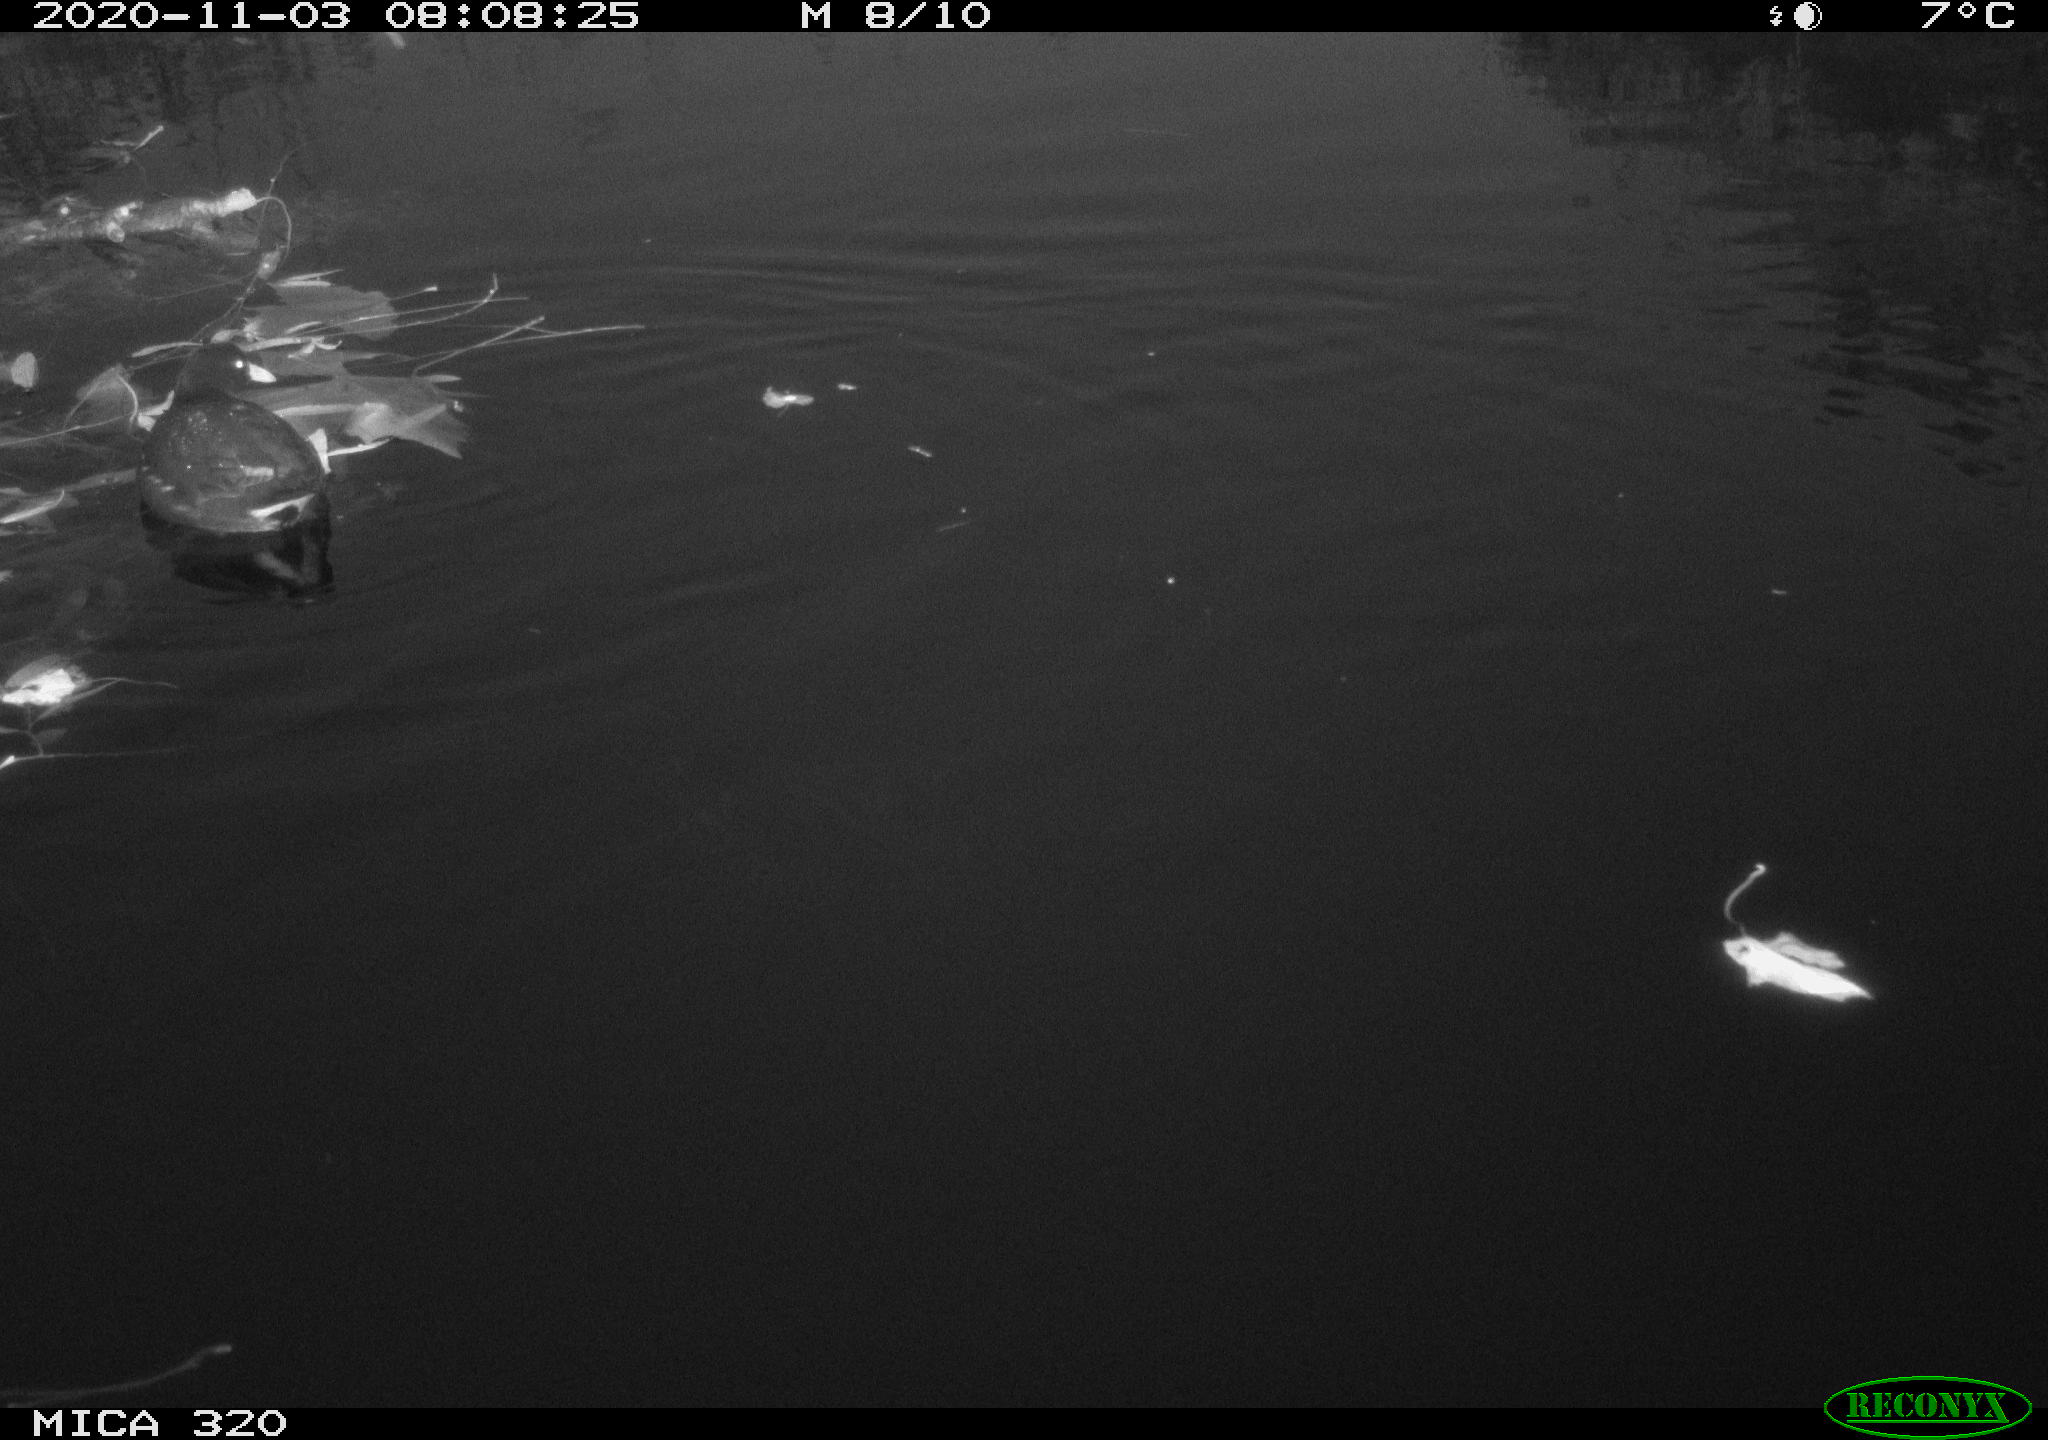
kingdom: Animalia
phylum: Chordata
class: Aves
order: Gruiformes
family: Rallidae
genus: Gallinula
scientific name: Gallinula chloropus
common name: Common moorhen
